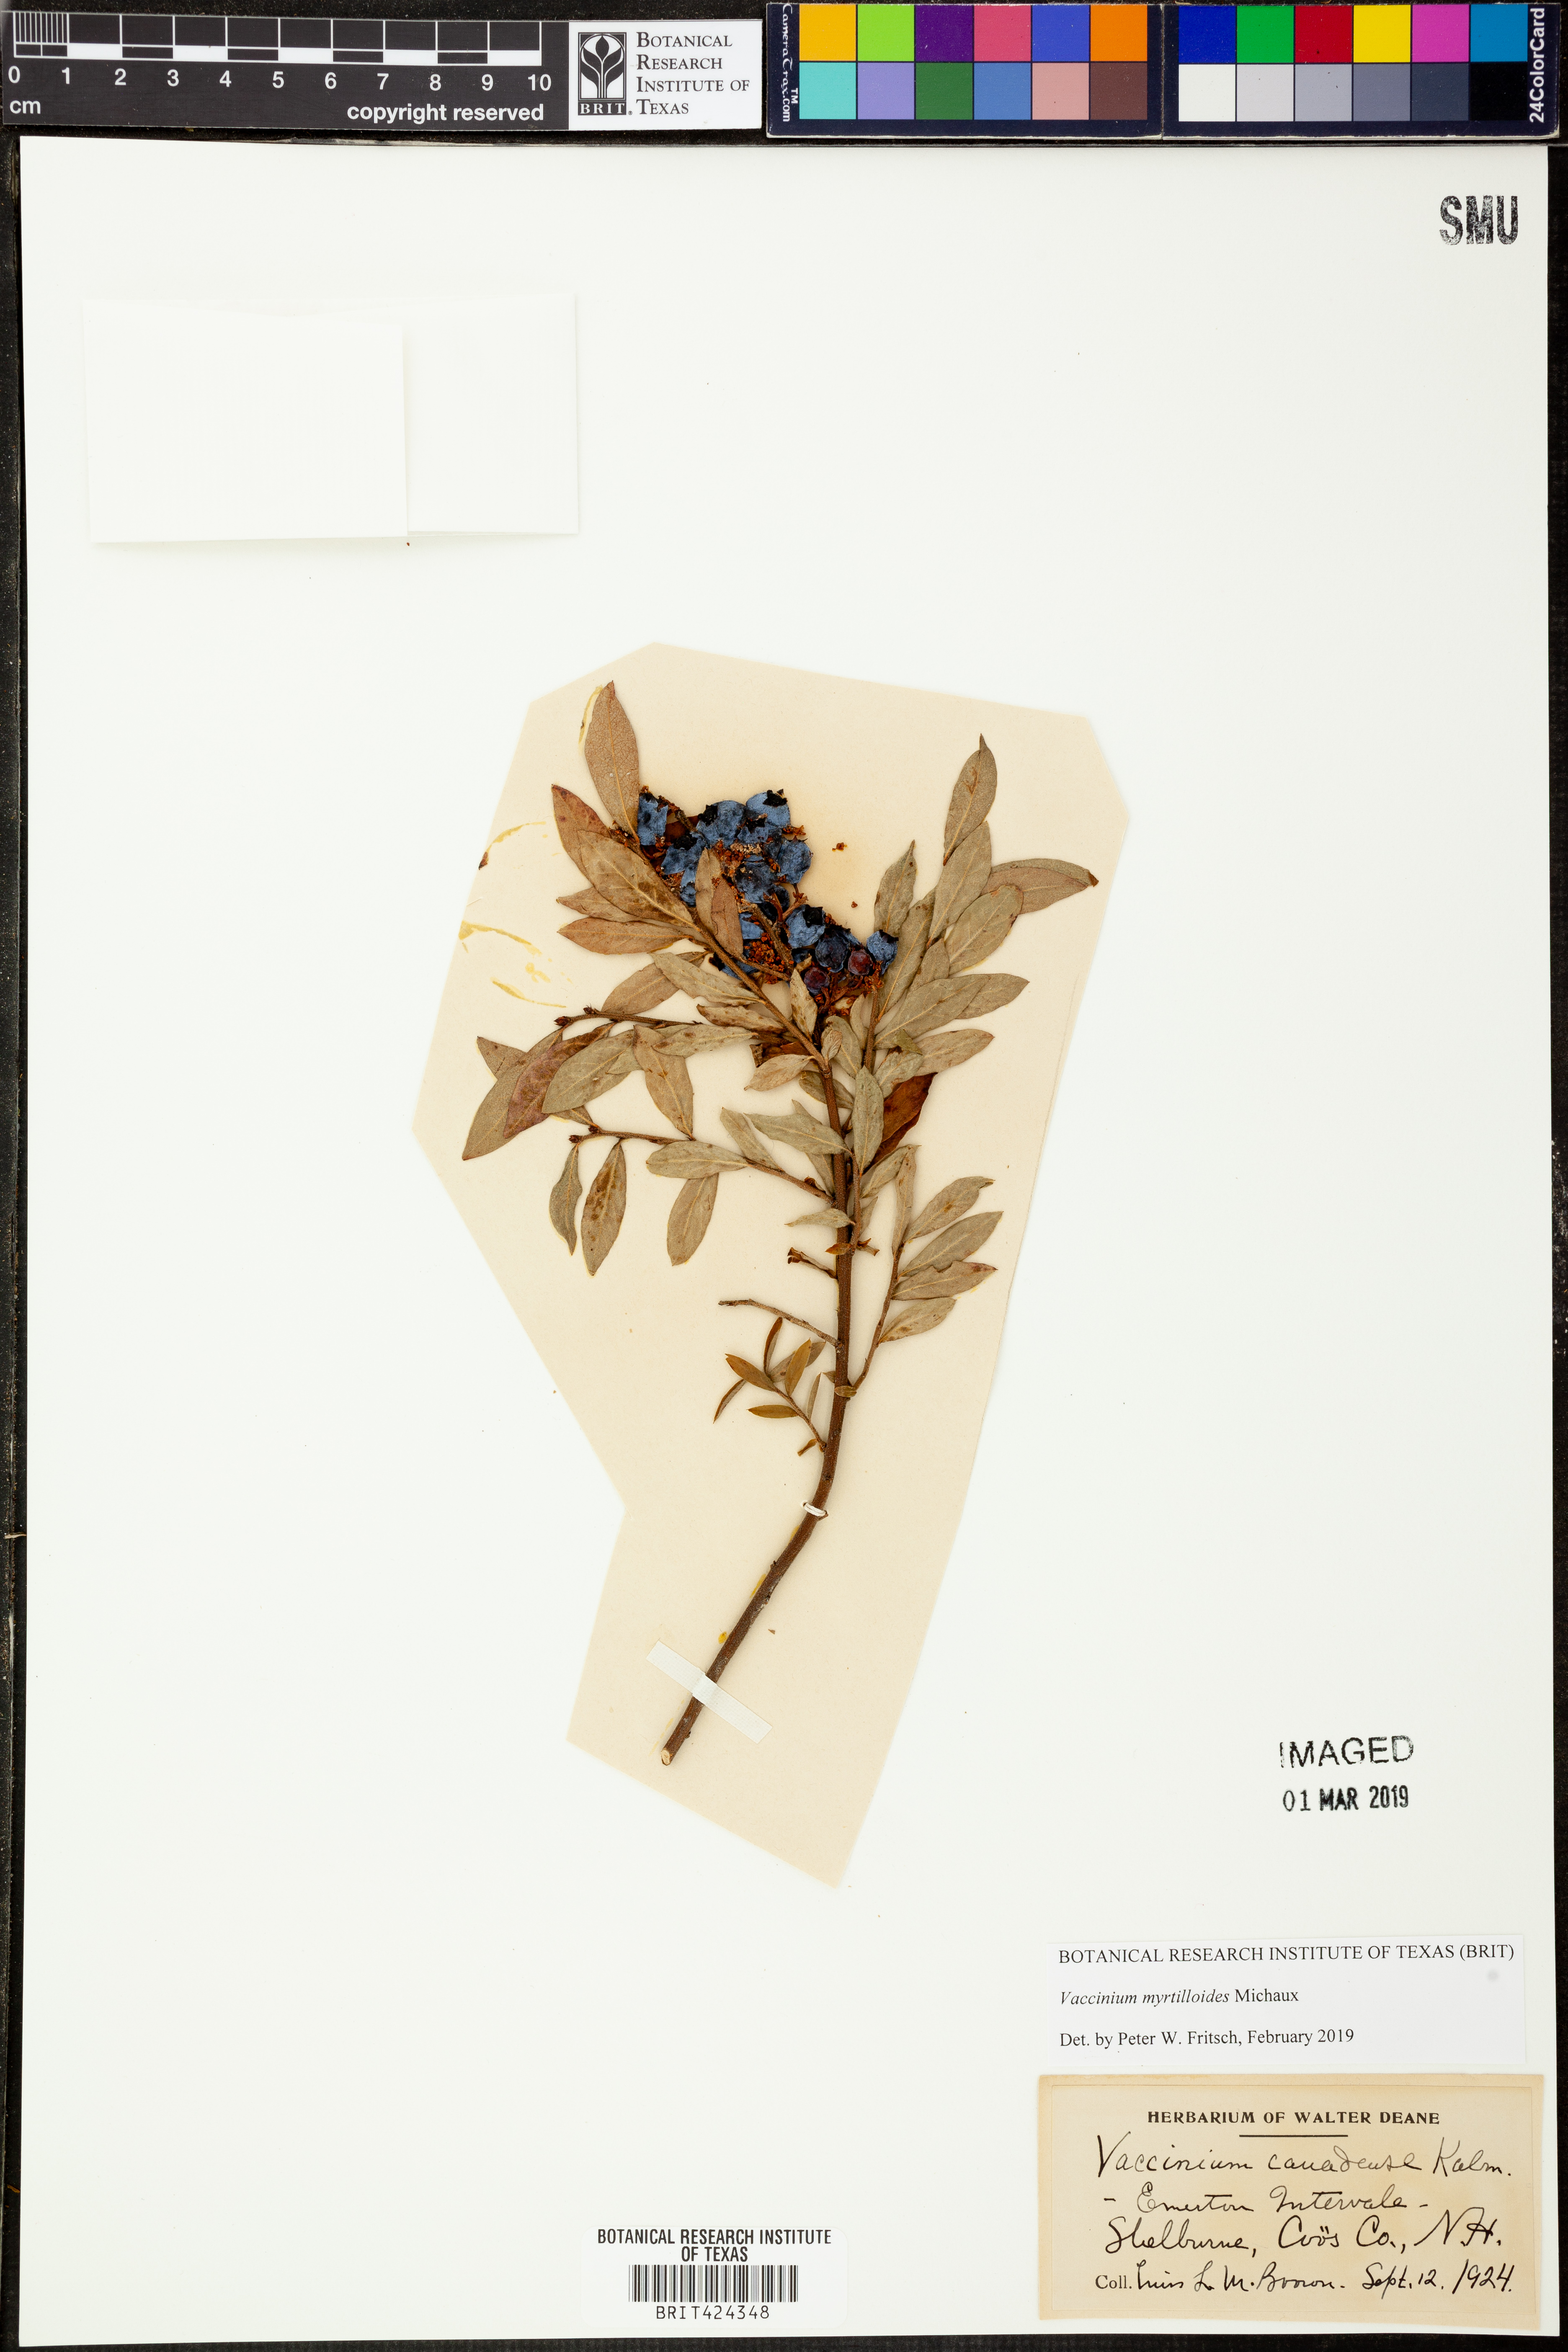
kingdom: Plantae
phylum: Tracheophyta
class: Magnoliopsida
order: Ericales
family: Ericaceae
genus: Vaccinium
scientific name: Vaccinium myrtilloides
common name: Canada blueberry
